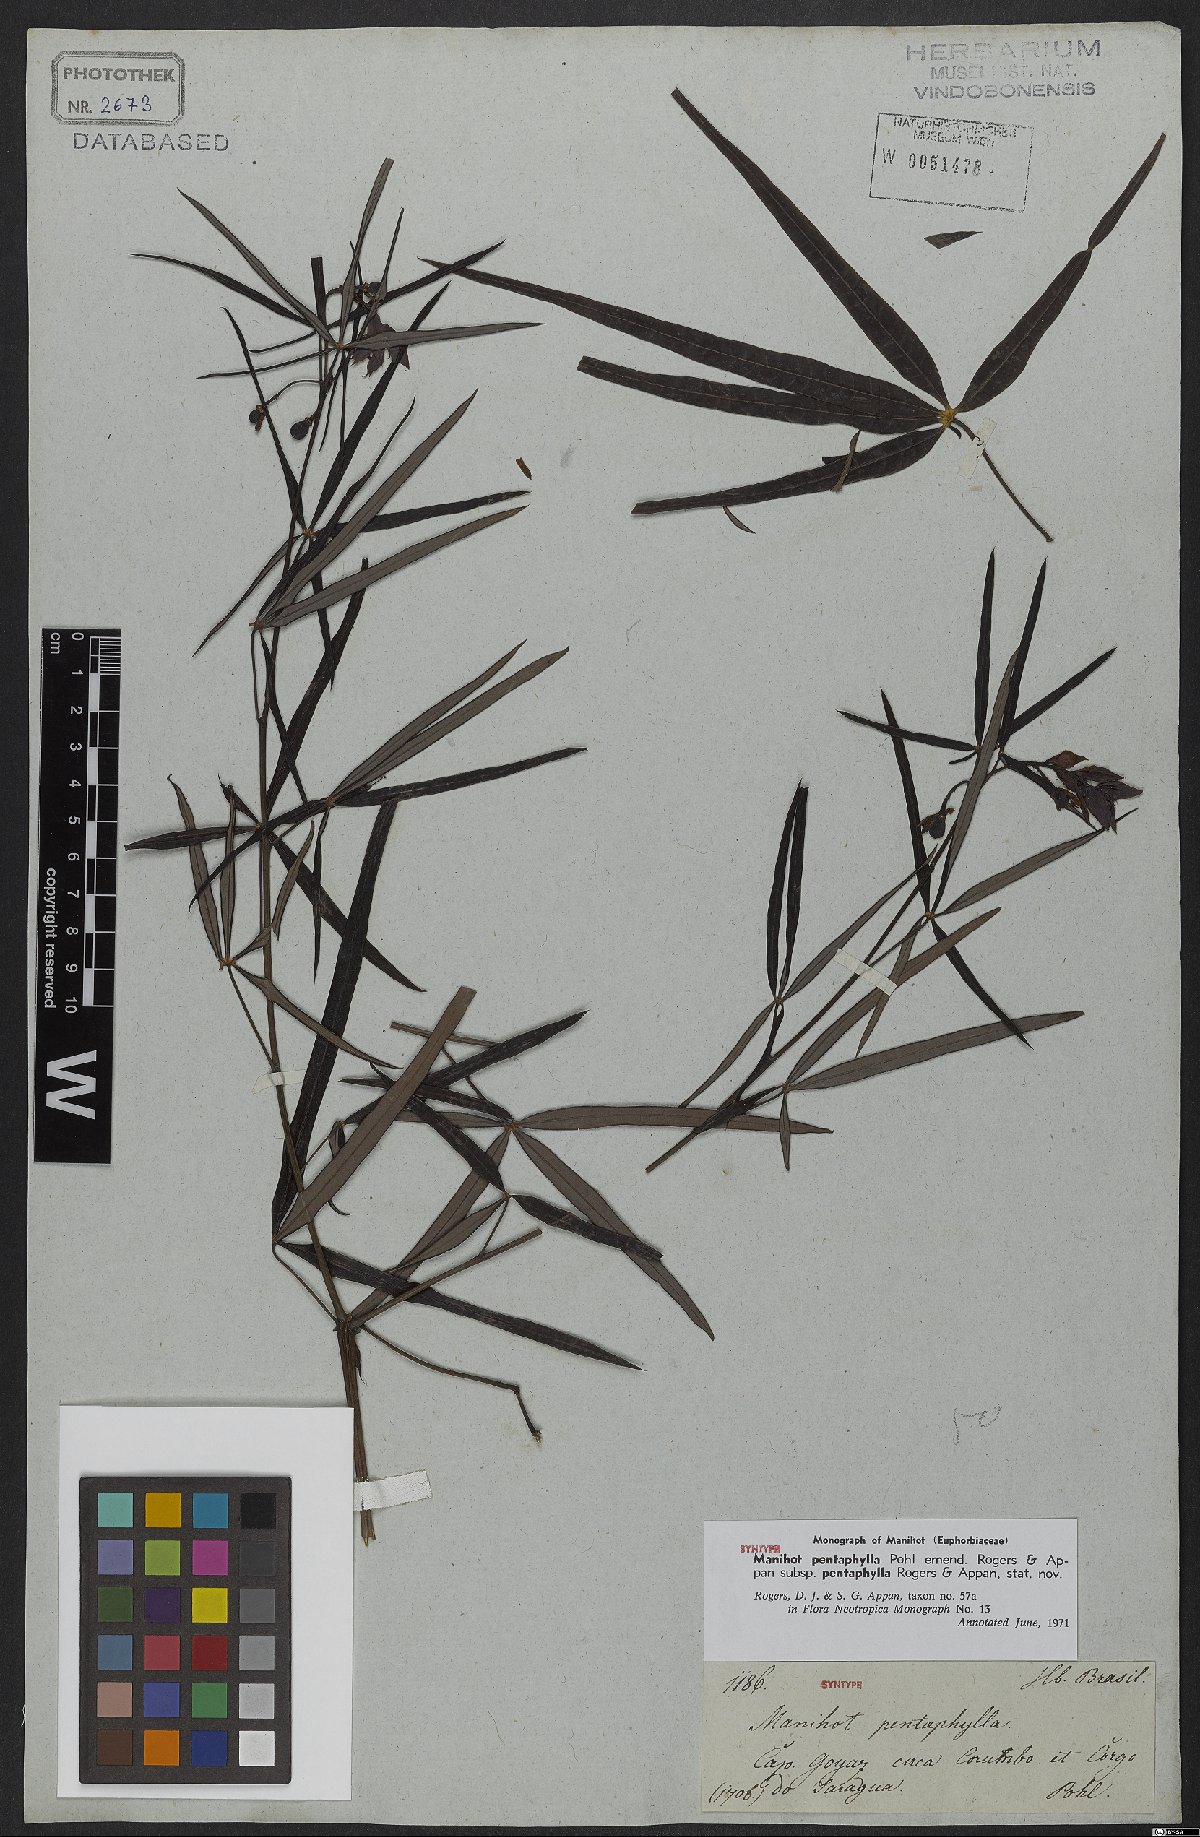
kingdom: Plantae
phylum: Tracheophyta
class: Magnoliopsida
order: Malpighiales
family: Euphorbiaceae
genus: Manihot
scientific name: Manihot pentaphylla
